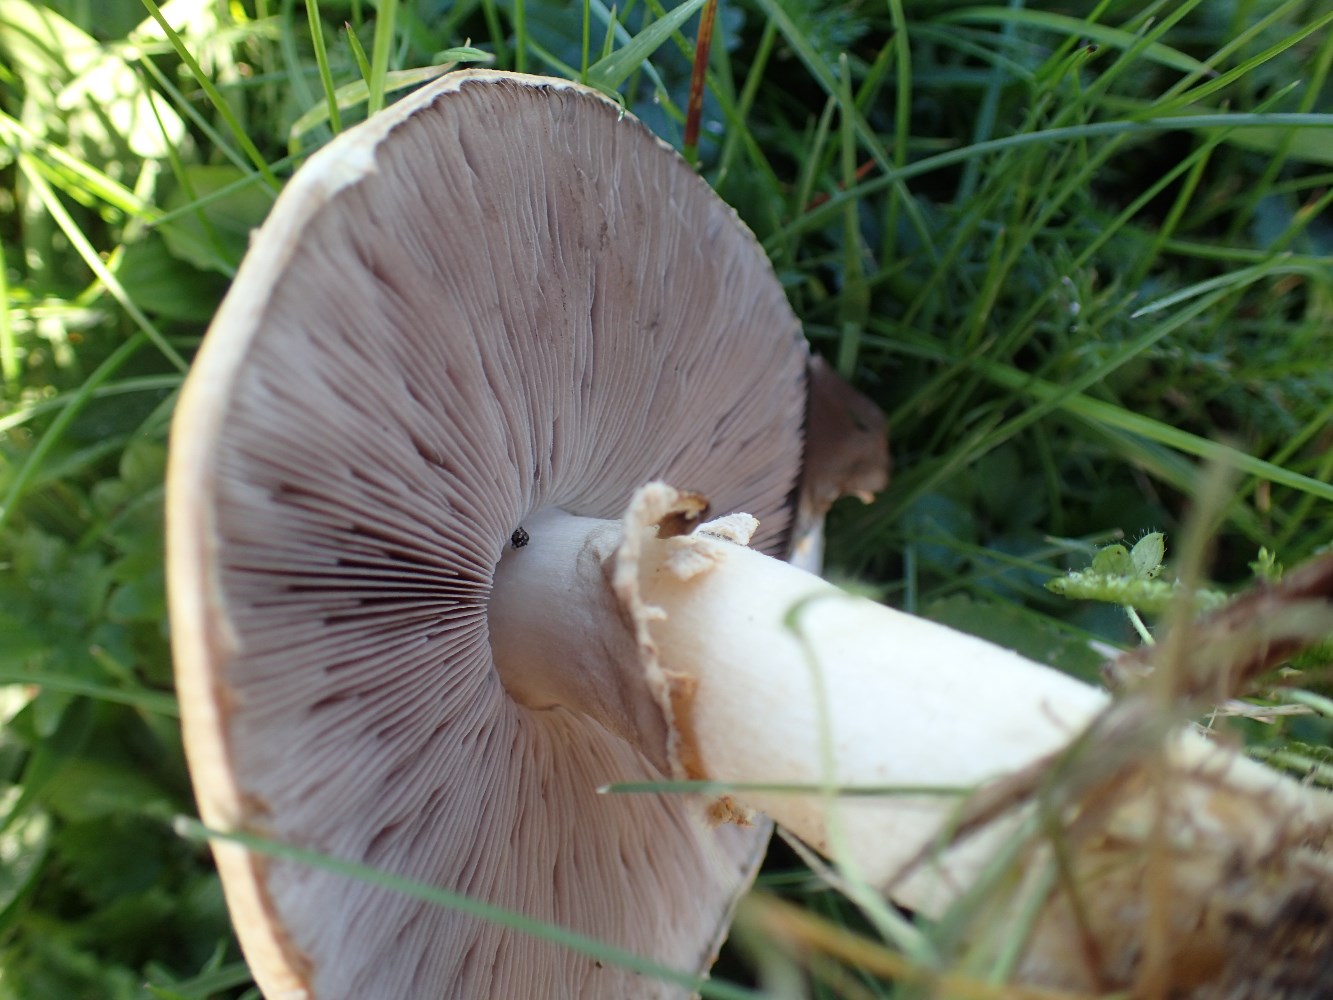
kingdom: Fungi
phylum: Basidiomycota
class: Agaricomycetes
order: Agaricales
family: Agaricaceae
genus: Agaricus
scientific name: Agaricus campestris
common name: mark-champignon
